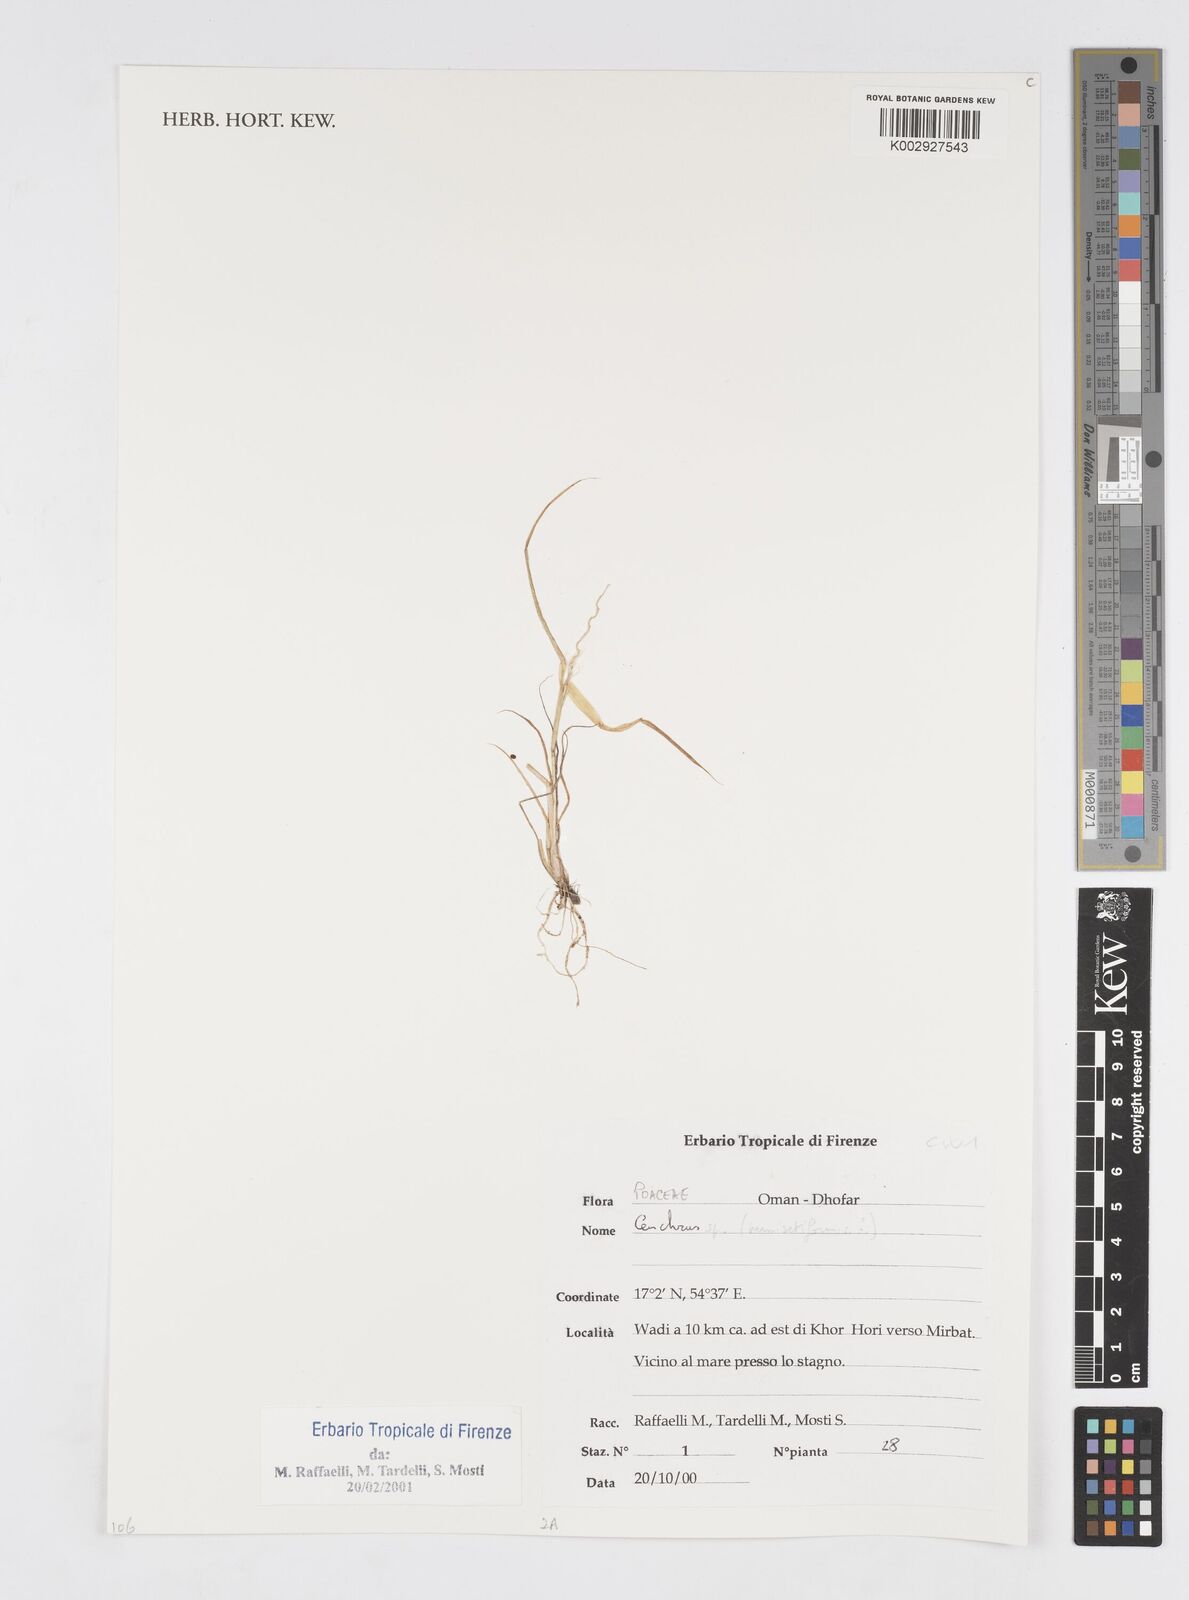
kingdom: Plantae
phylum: Tracheophyta
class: Liliopsida
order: Poales
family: Poaceae
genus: Cenchrus
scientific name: Cenchrus pennisetiformis
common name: Cloncurry
